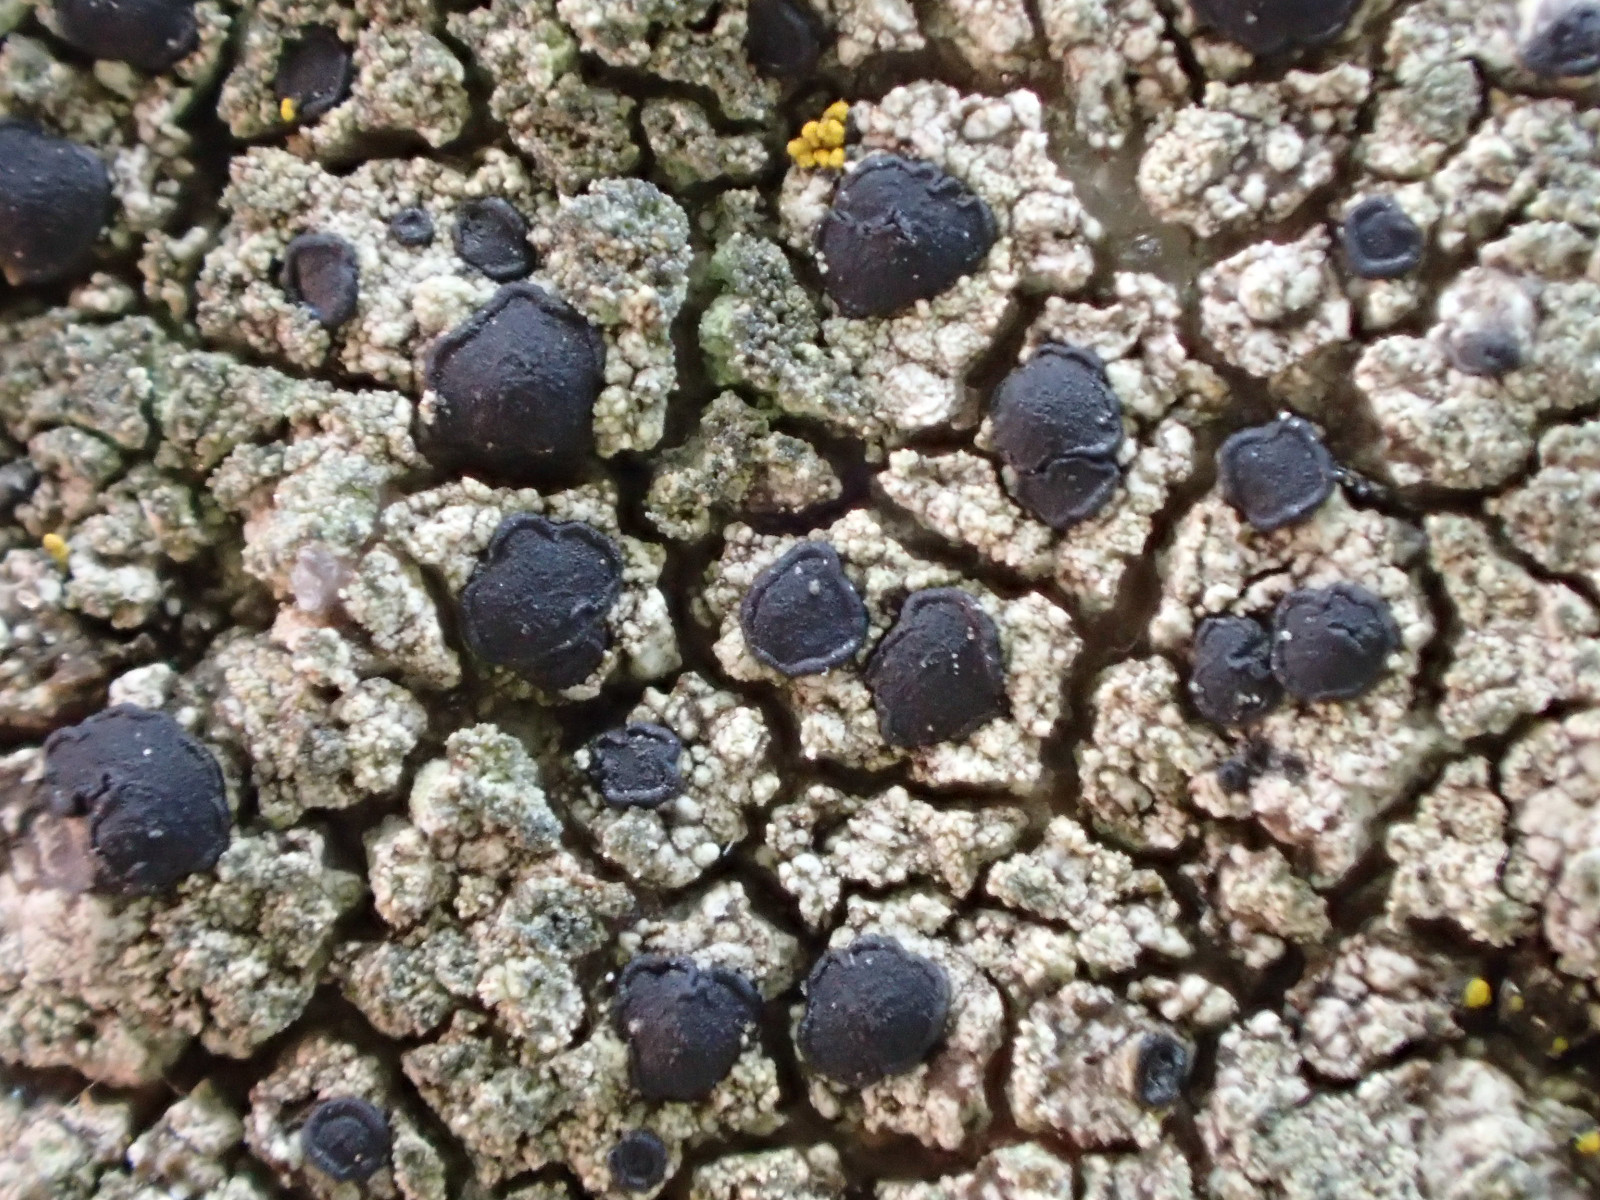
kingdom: Fungi
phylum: Ascomycota
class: Lecanoromycetes
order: Lecanorales
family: Lecanoraceae
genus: Lecidella
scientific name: Lecidella scabra
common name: skurvet skivelav
